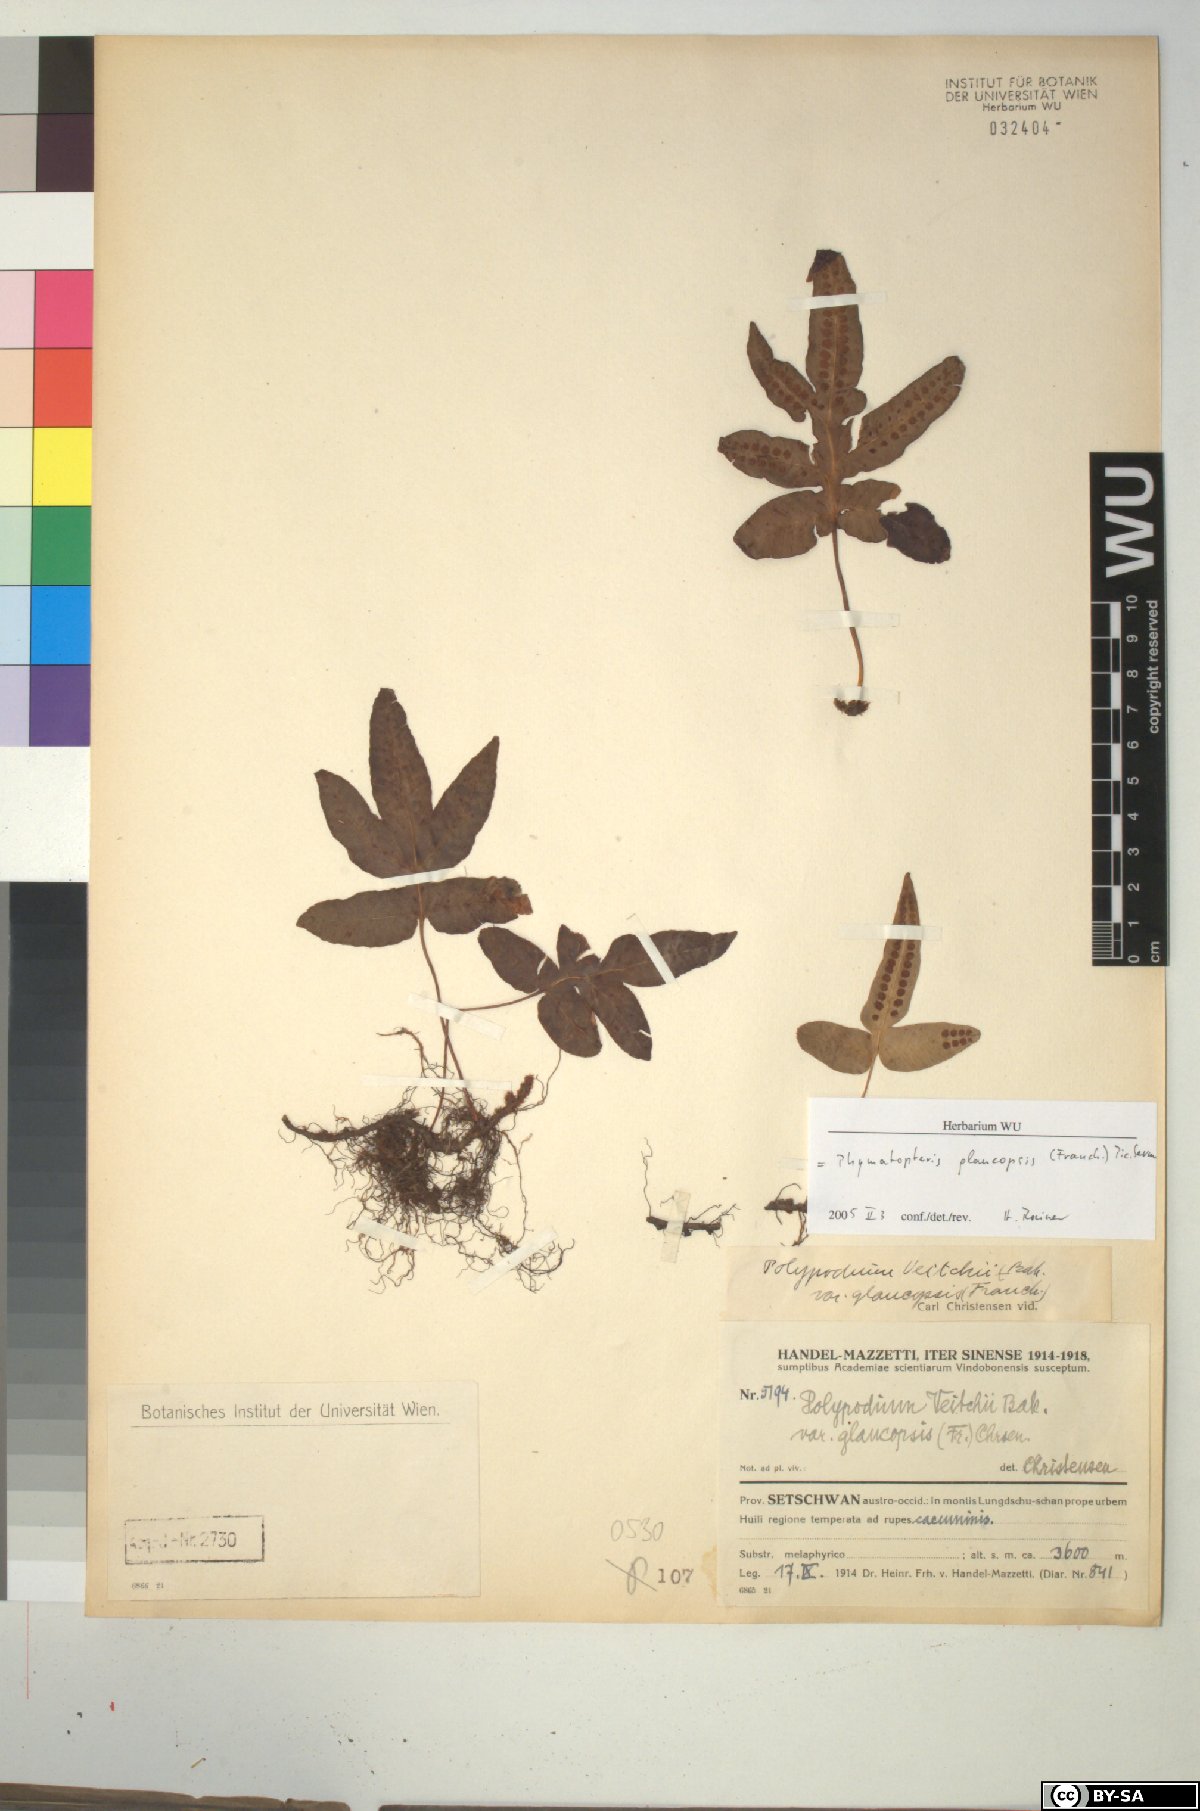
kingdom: Plantae
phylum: Tracheophyta
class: Polypodiopsida
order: Polypodiales
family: Polypodiaceae
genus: Selliguea
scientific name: Selliguea glaucopsis
